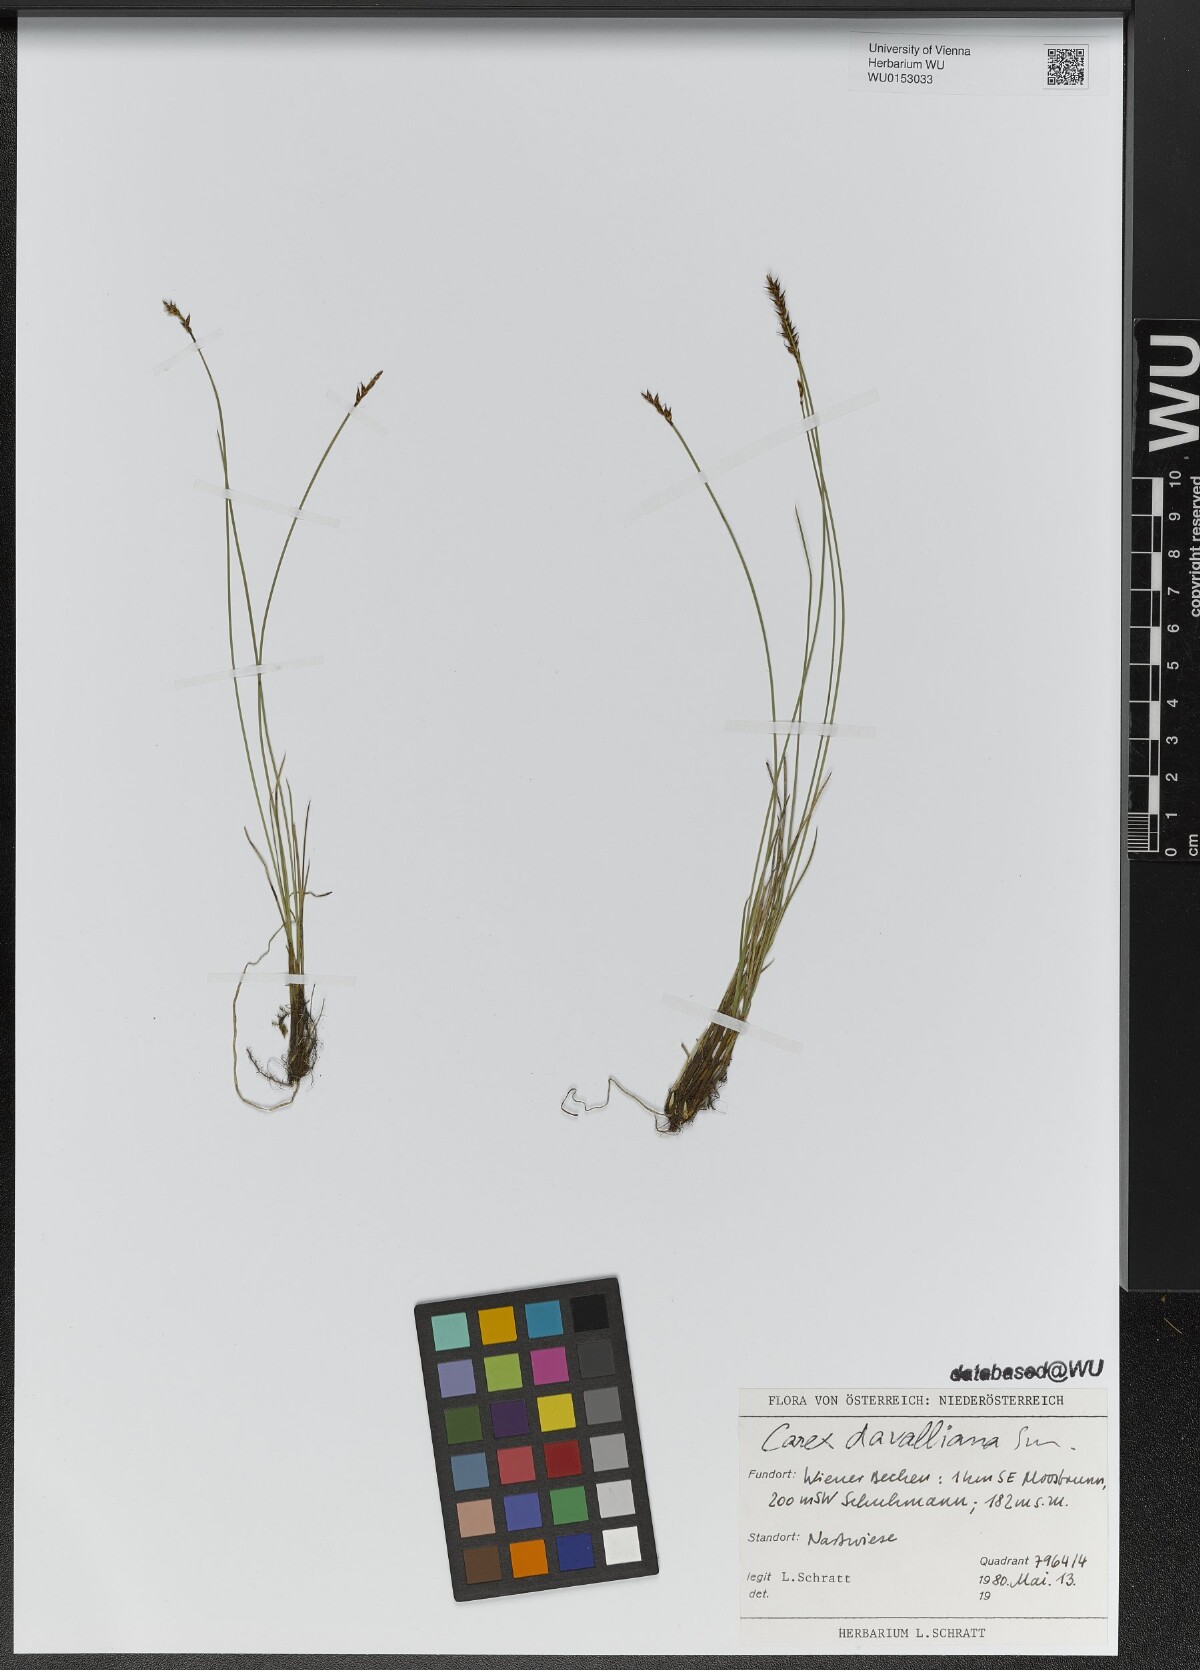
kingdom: Plantae
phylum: Tracheophyta
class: Liliopsida
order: Poales
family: Cyperaceae
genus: Carex
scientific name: Carex davalliana
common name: Davall's sedge
